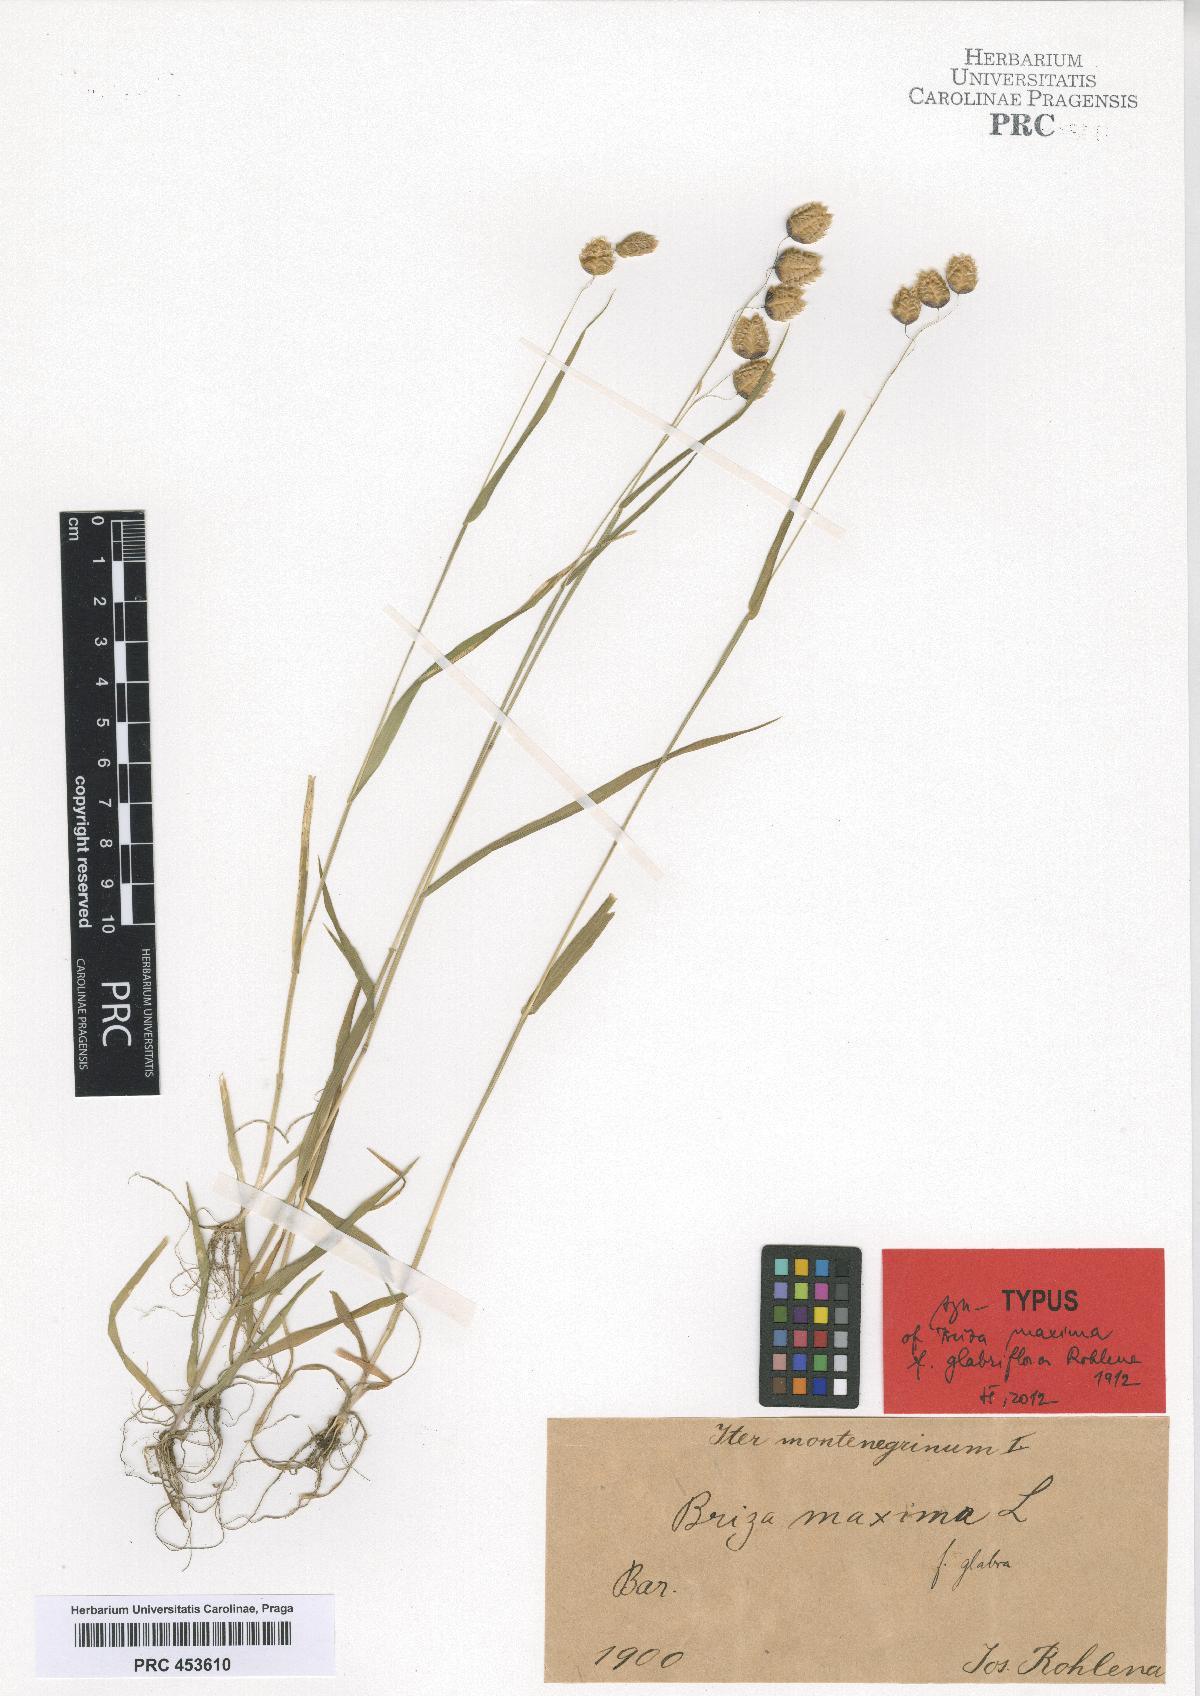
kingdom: Plantae
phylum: Tracheophyta
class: Liliopsida
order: Poales
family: Poaceae
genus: Briza
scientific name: Briza maxima
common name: Big quakinggrass
